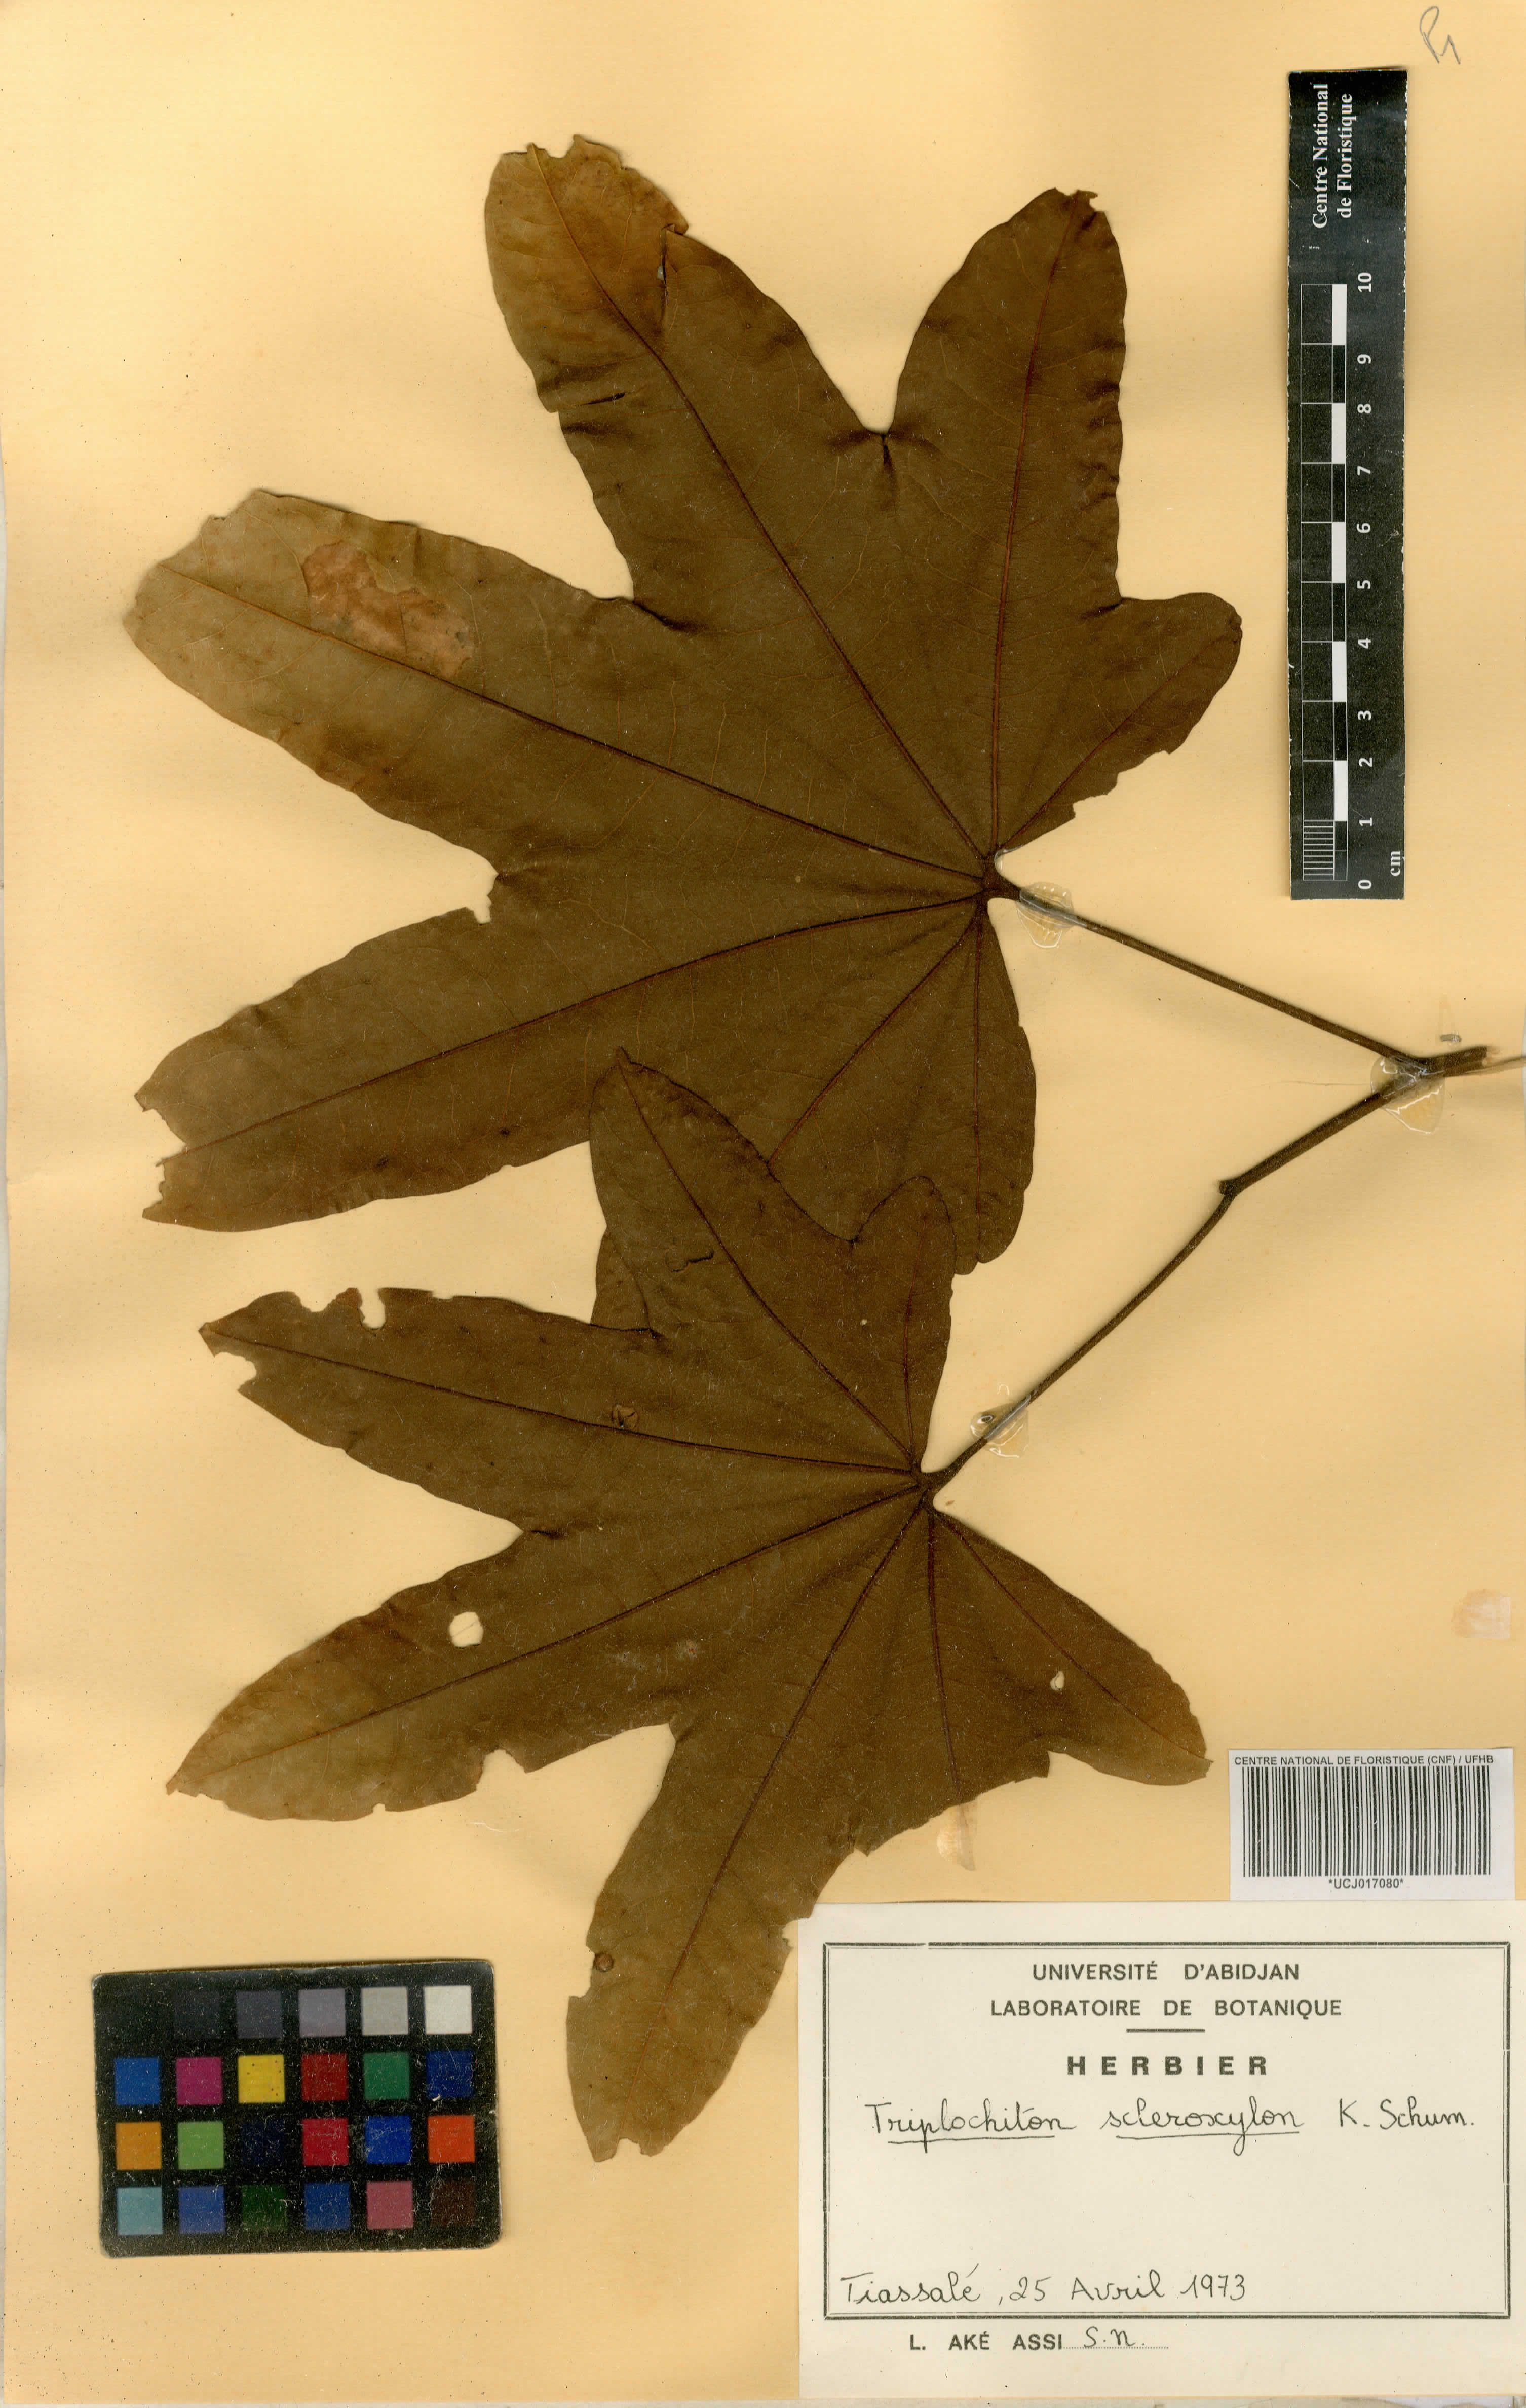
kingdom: Plantae
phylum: Tracheophyta
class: Magnoliopsida
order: Malvales
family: Malvaceae
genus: Triplochiton
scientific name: Triplochiton scleroxylon
